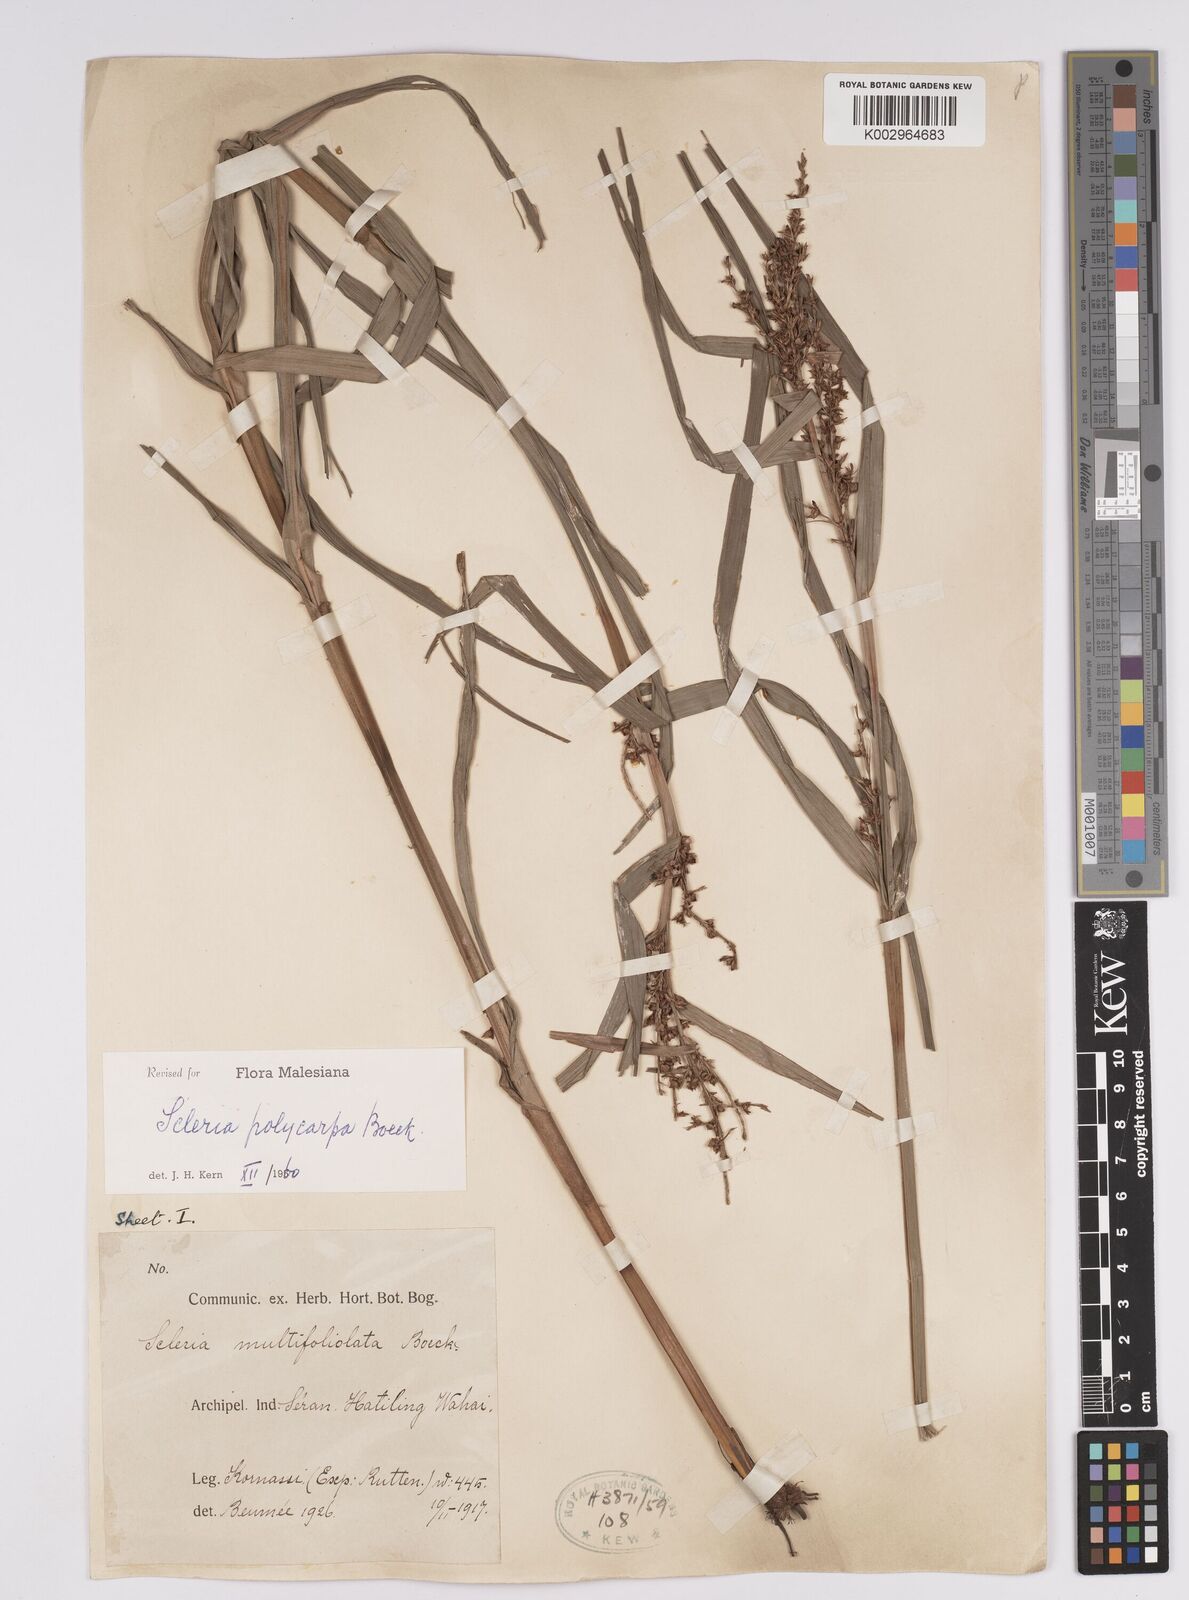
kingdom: Plantae
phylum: Tracheophyta
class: Liliopsida
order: Poales
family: Cyperaceae
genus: Scleria
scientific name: Scleria polycarpa
